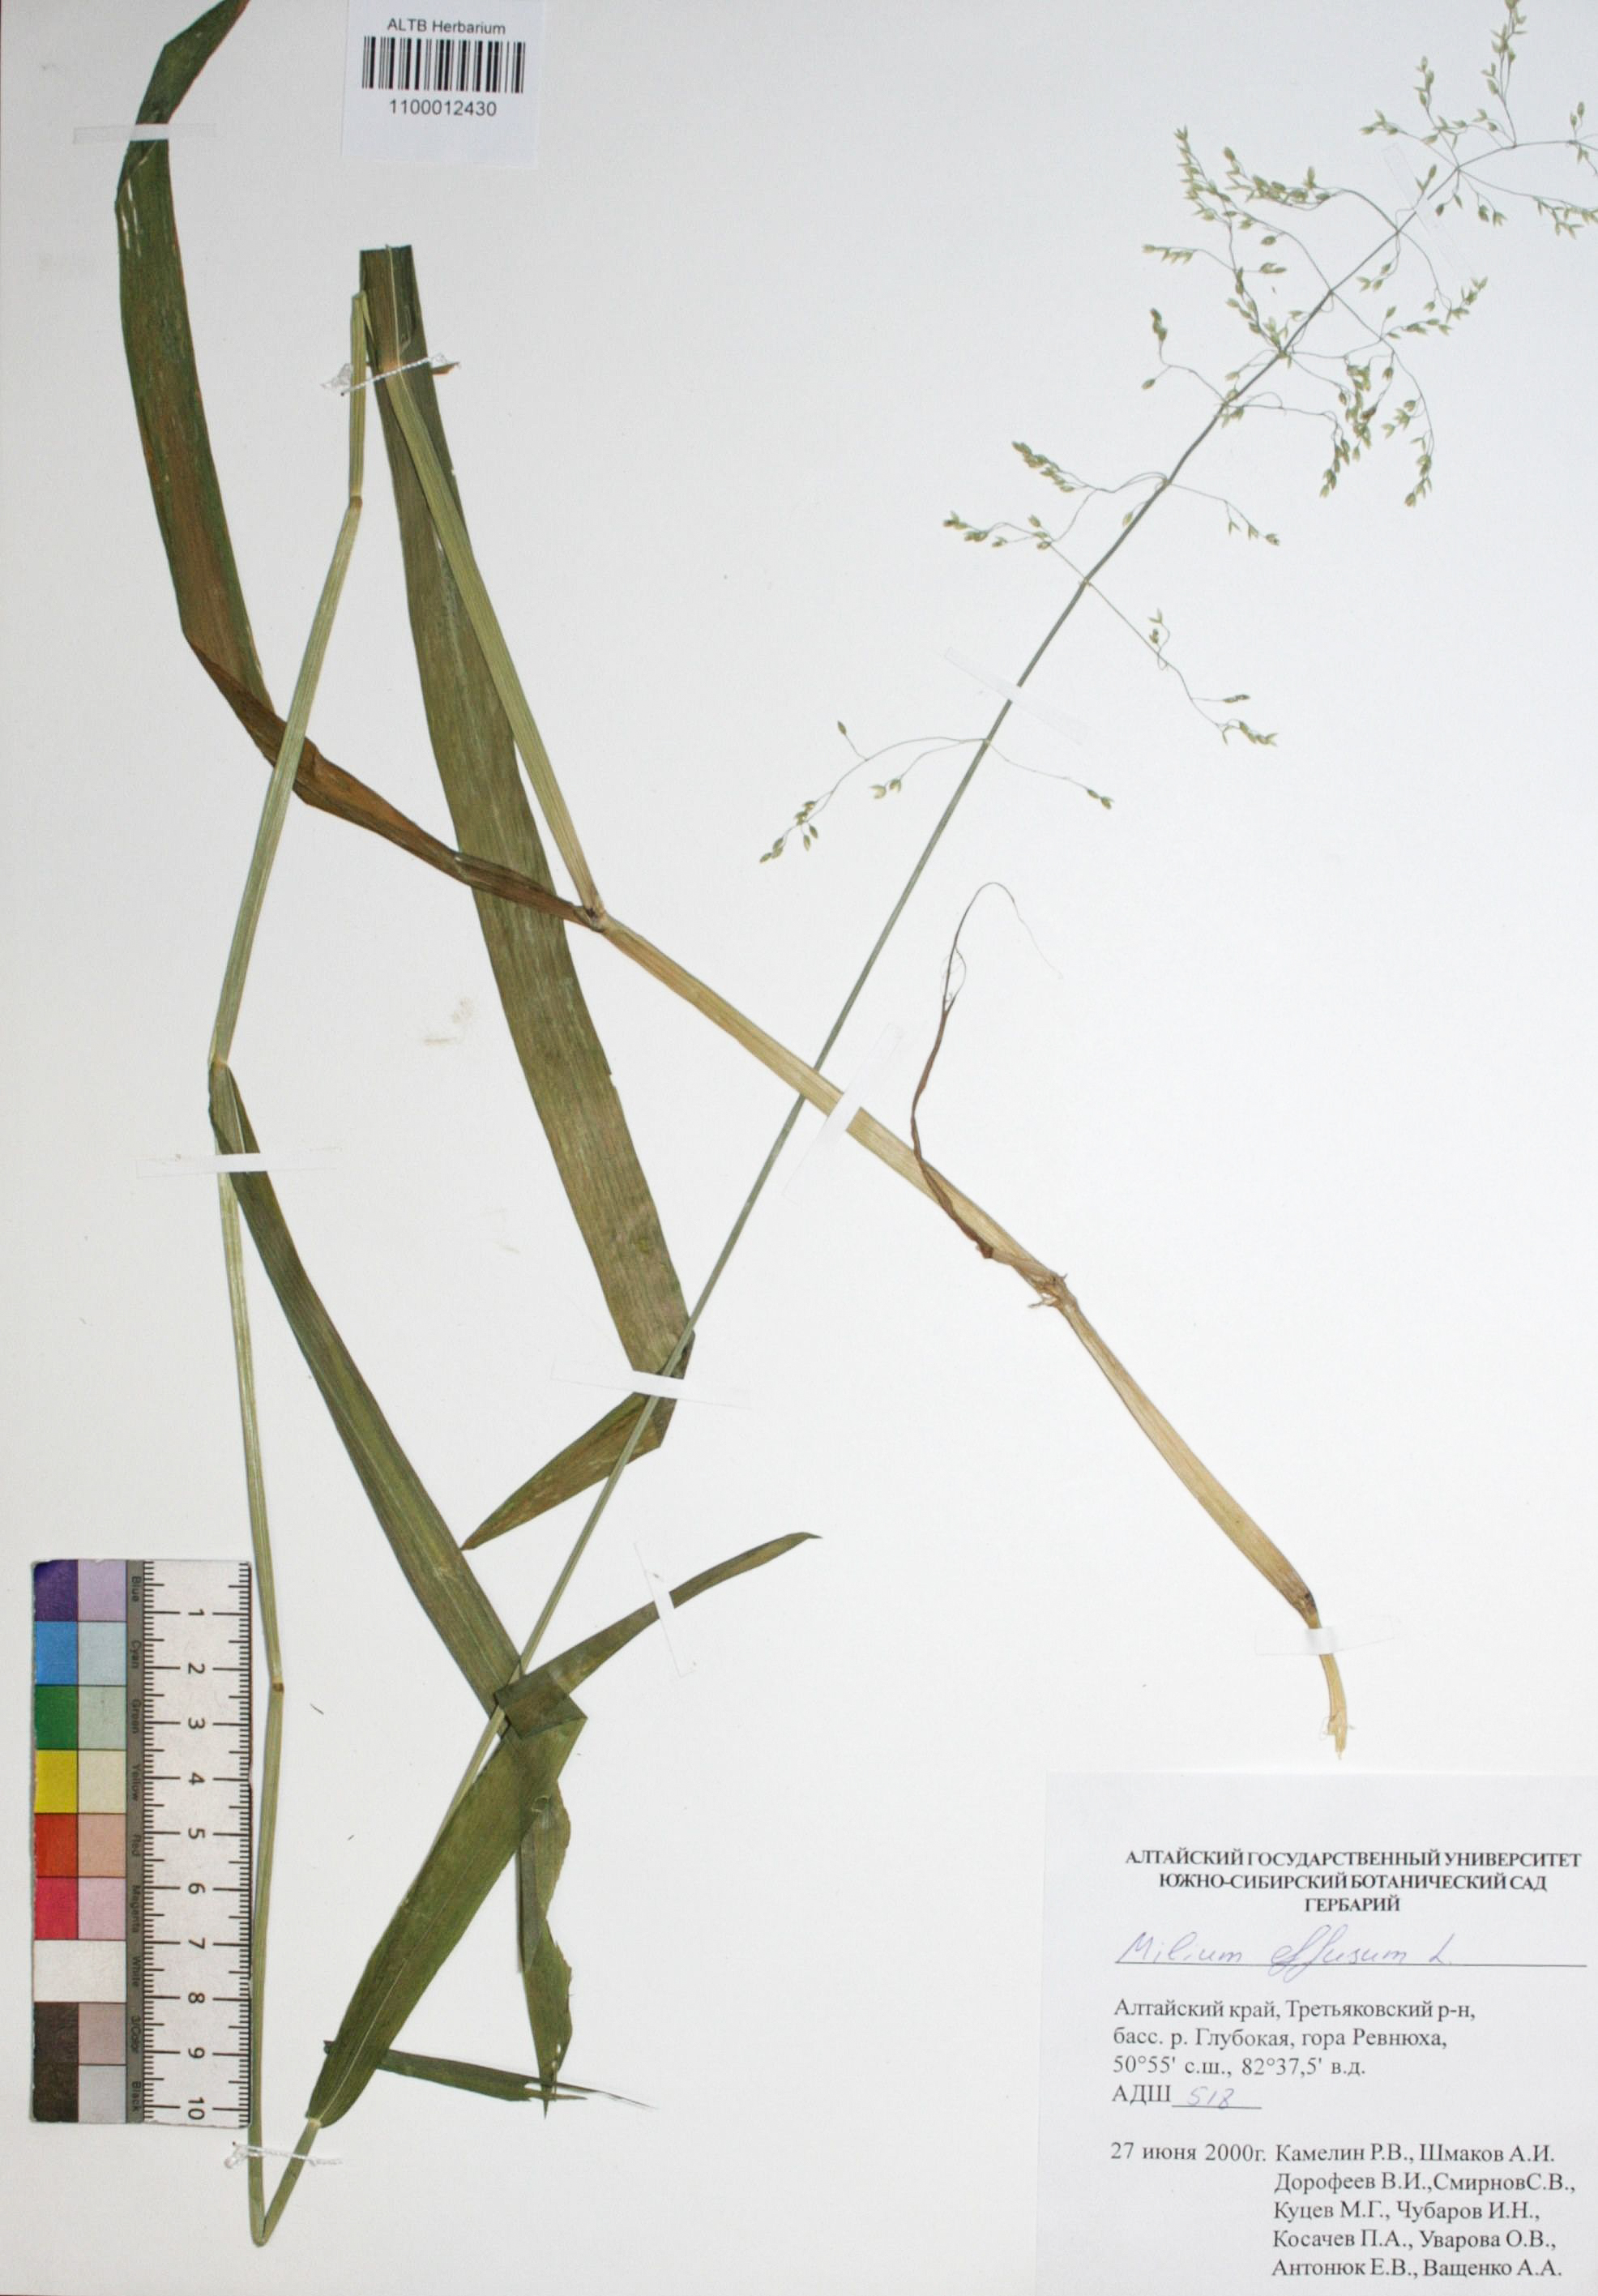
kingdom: Plantae
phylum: Tracheophyta
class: Liliopsida
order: Poales
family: Poaceae
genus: Milium
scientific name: Milium effusum
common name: Wood millet
